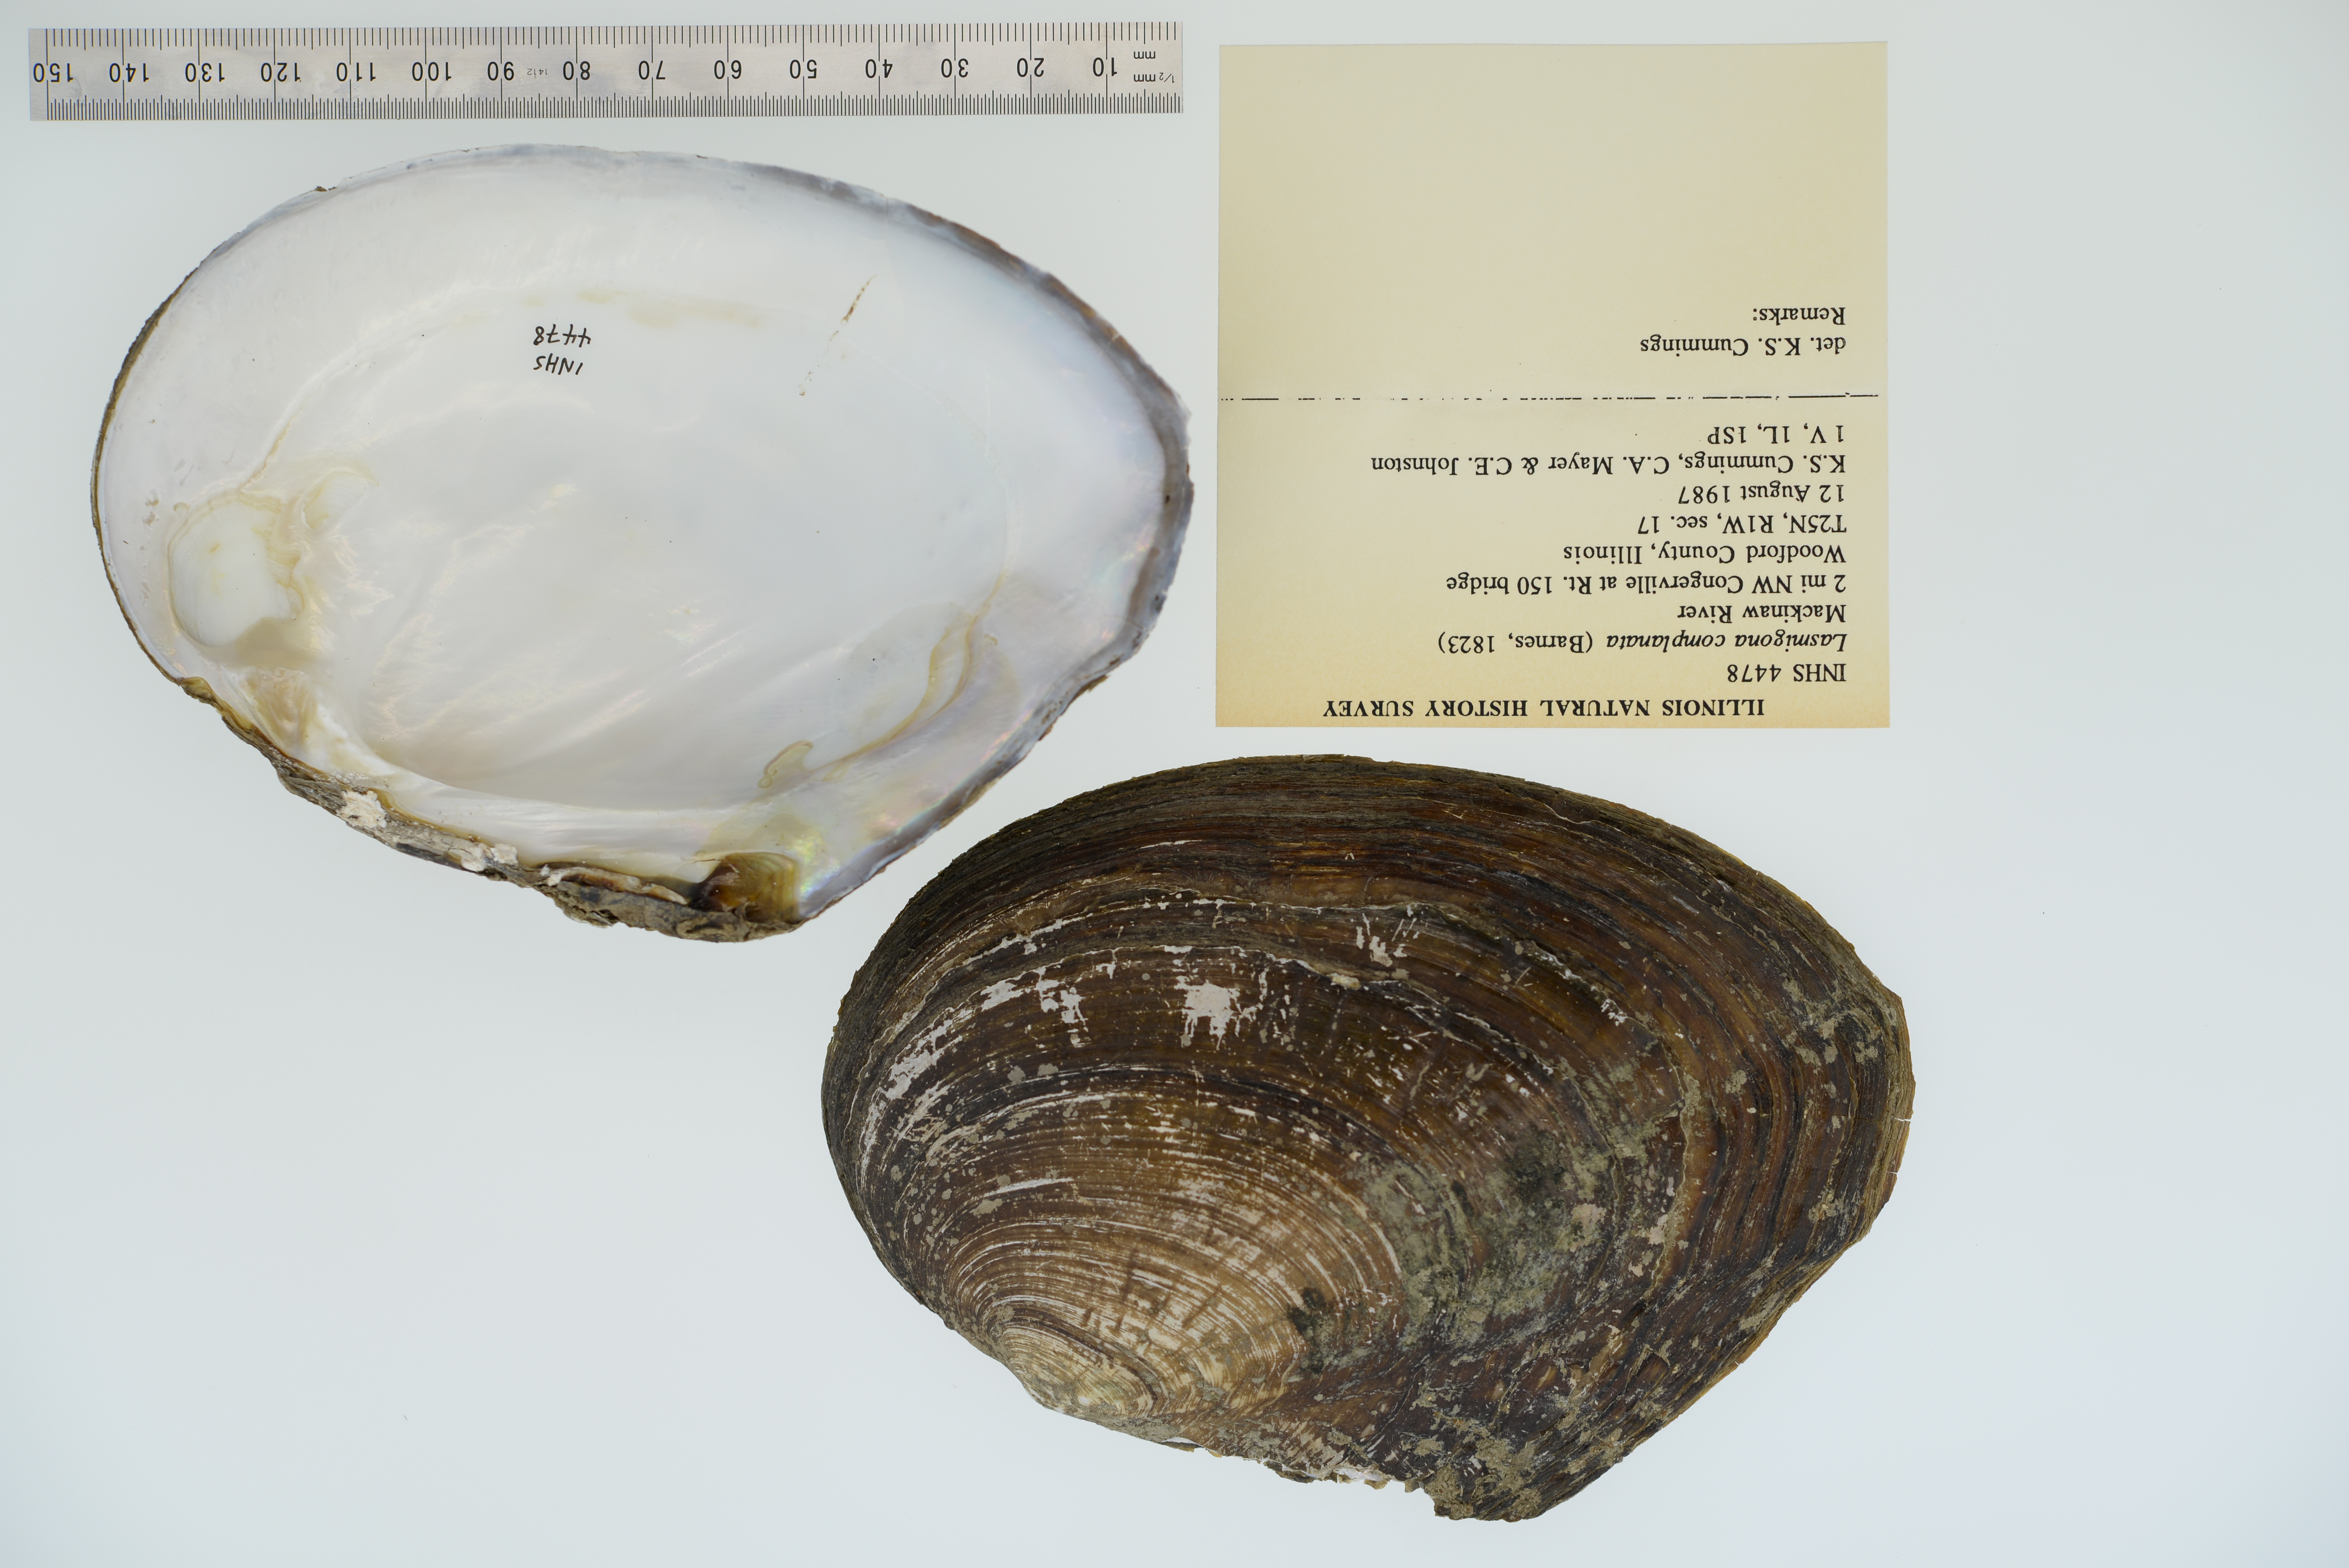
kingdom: Animalia
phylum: Mollusca
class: Bivalvia
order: Unionida
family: Unionidae
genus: Lasmigona
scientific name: Lasmigona complanata
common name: White heelsplitter
